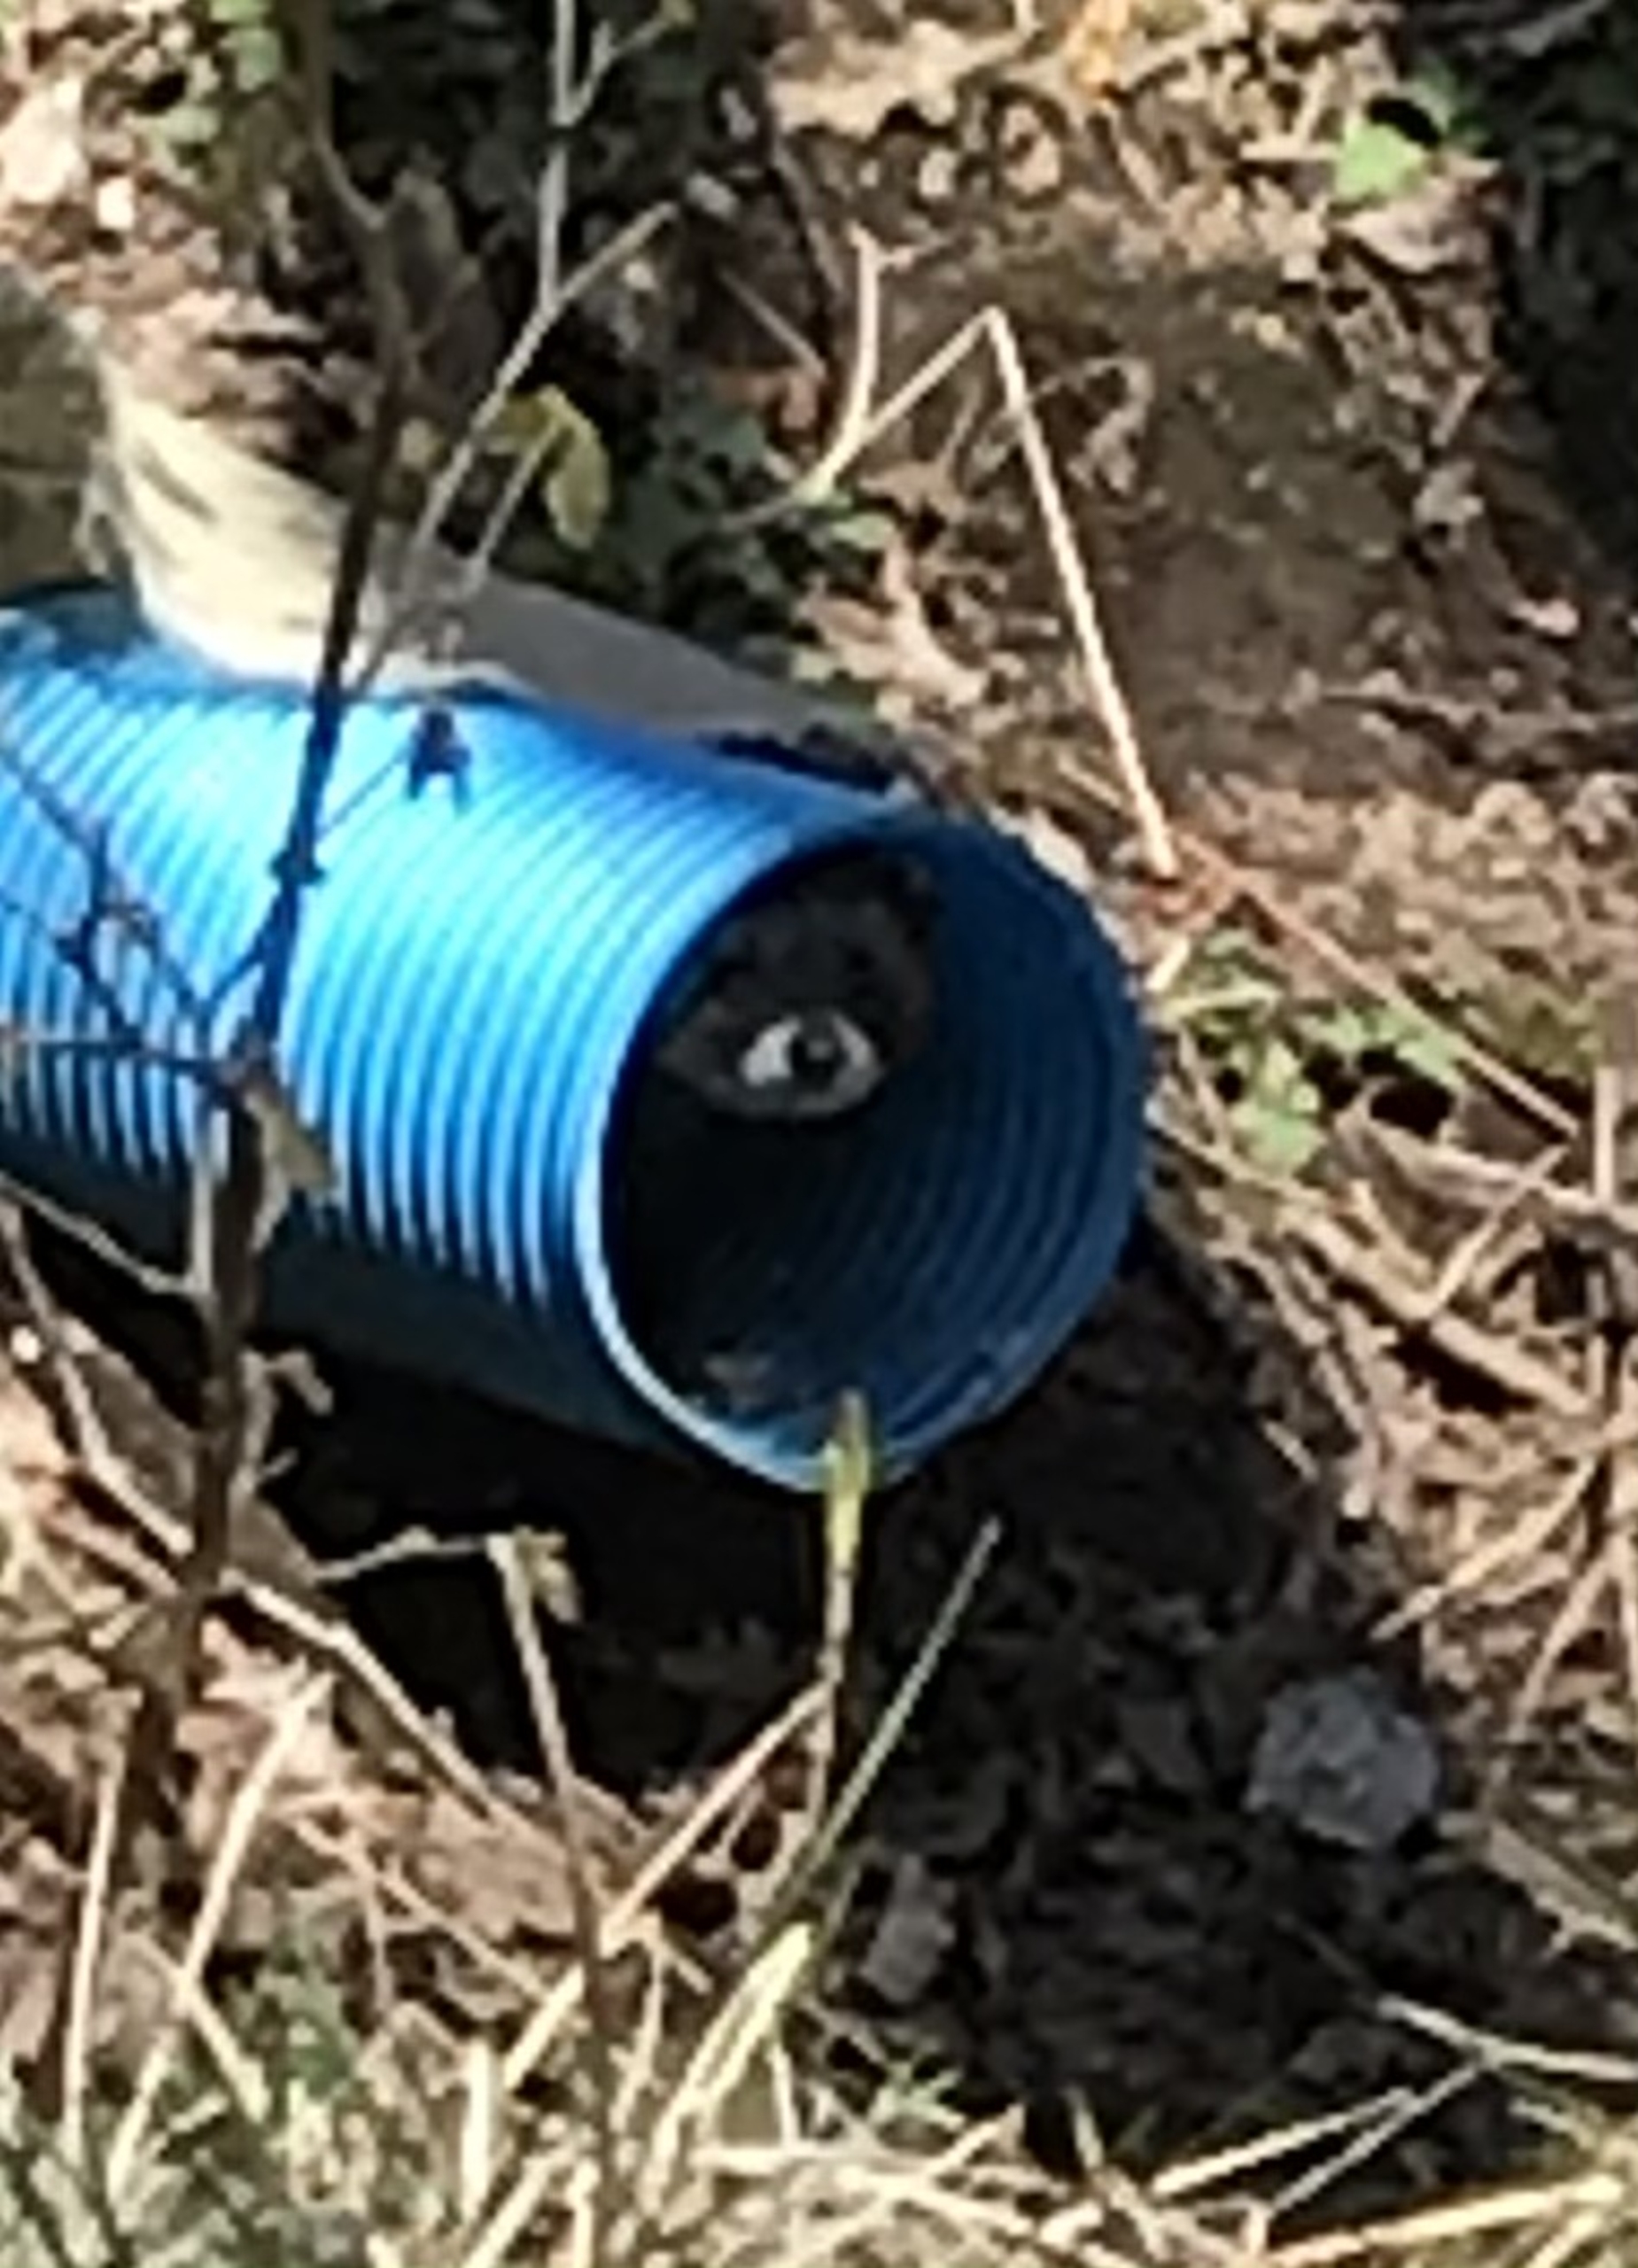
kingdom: Animalia
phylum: Chordata
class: Mammalia
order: Carnivora
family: Mustelidae
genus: Mustela
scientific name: Mustela putorius
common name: Ilder
